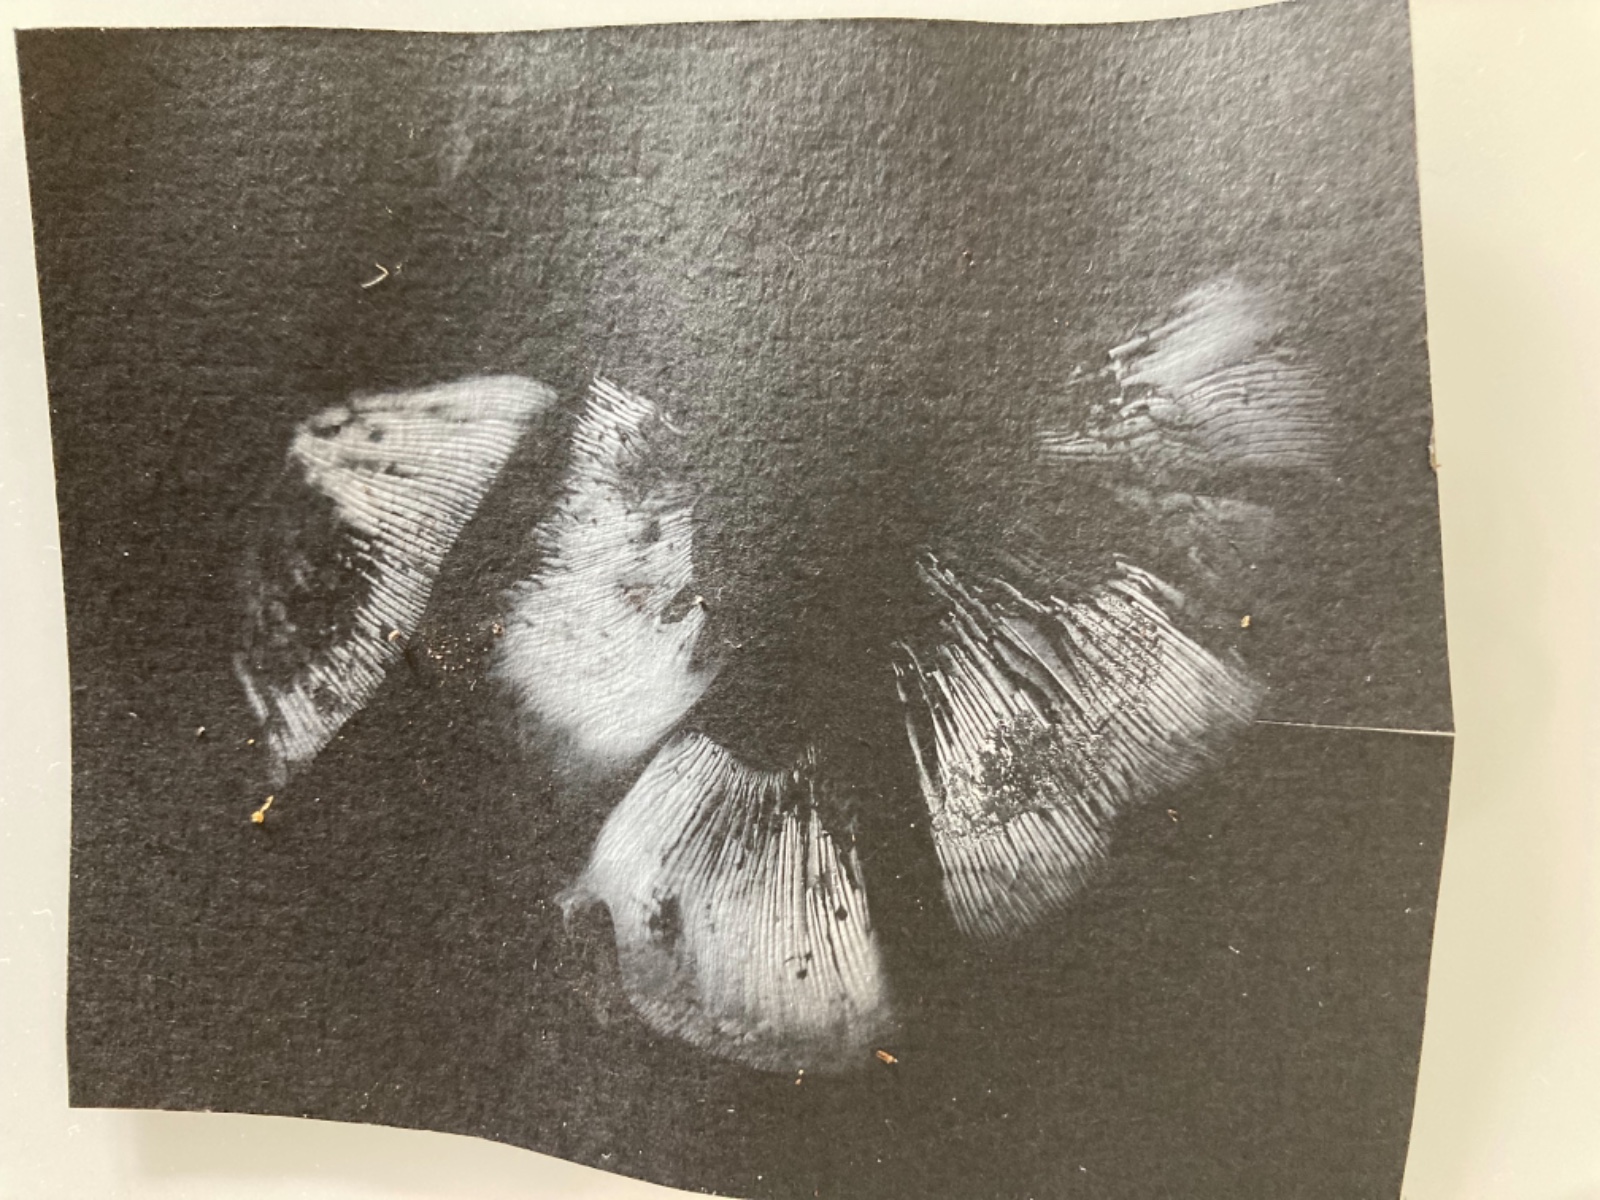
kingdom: Fungi
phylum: Basidiomycota
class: Agaricomycetes
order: Agaricales
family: Lyophyllaceae
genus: Calocybe
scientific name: Calocybe gambosa
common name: vårmusseron
